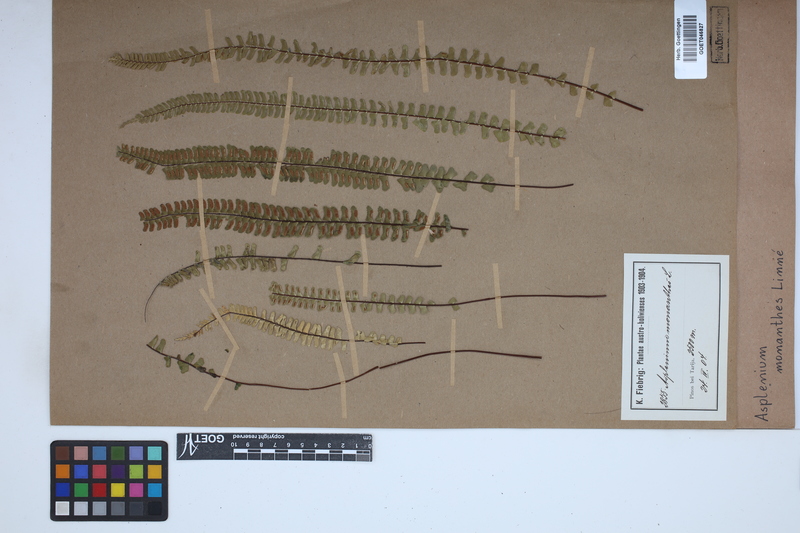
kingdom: Plantae
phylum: Tracheophyta
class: Polypodiopsida
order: Polypodiales
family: Aspleniaceae
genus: Asplenium
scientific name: Asplenium monanthes
